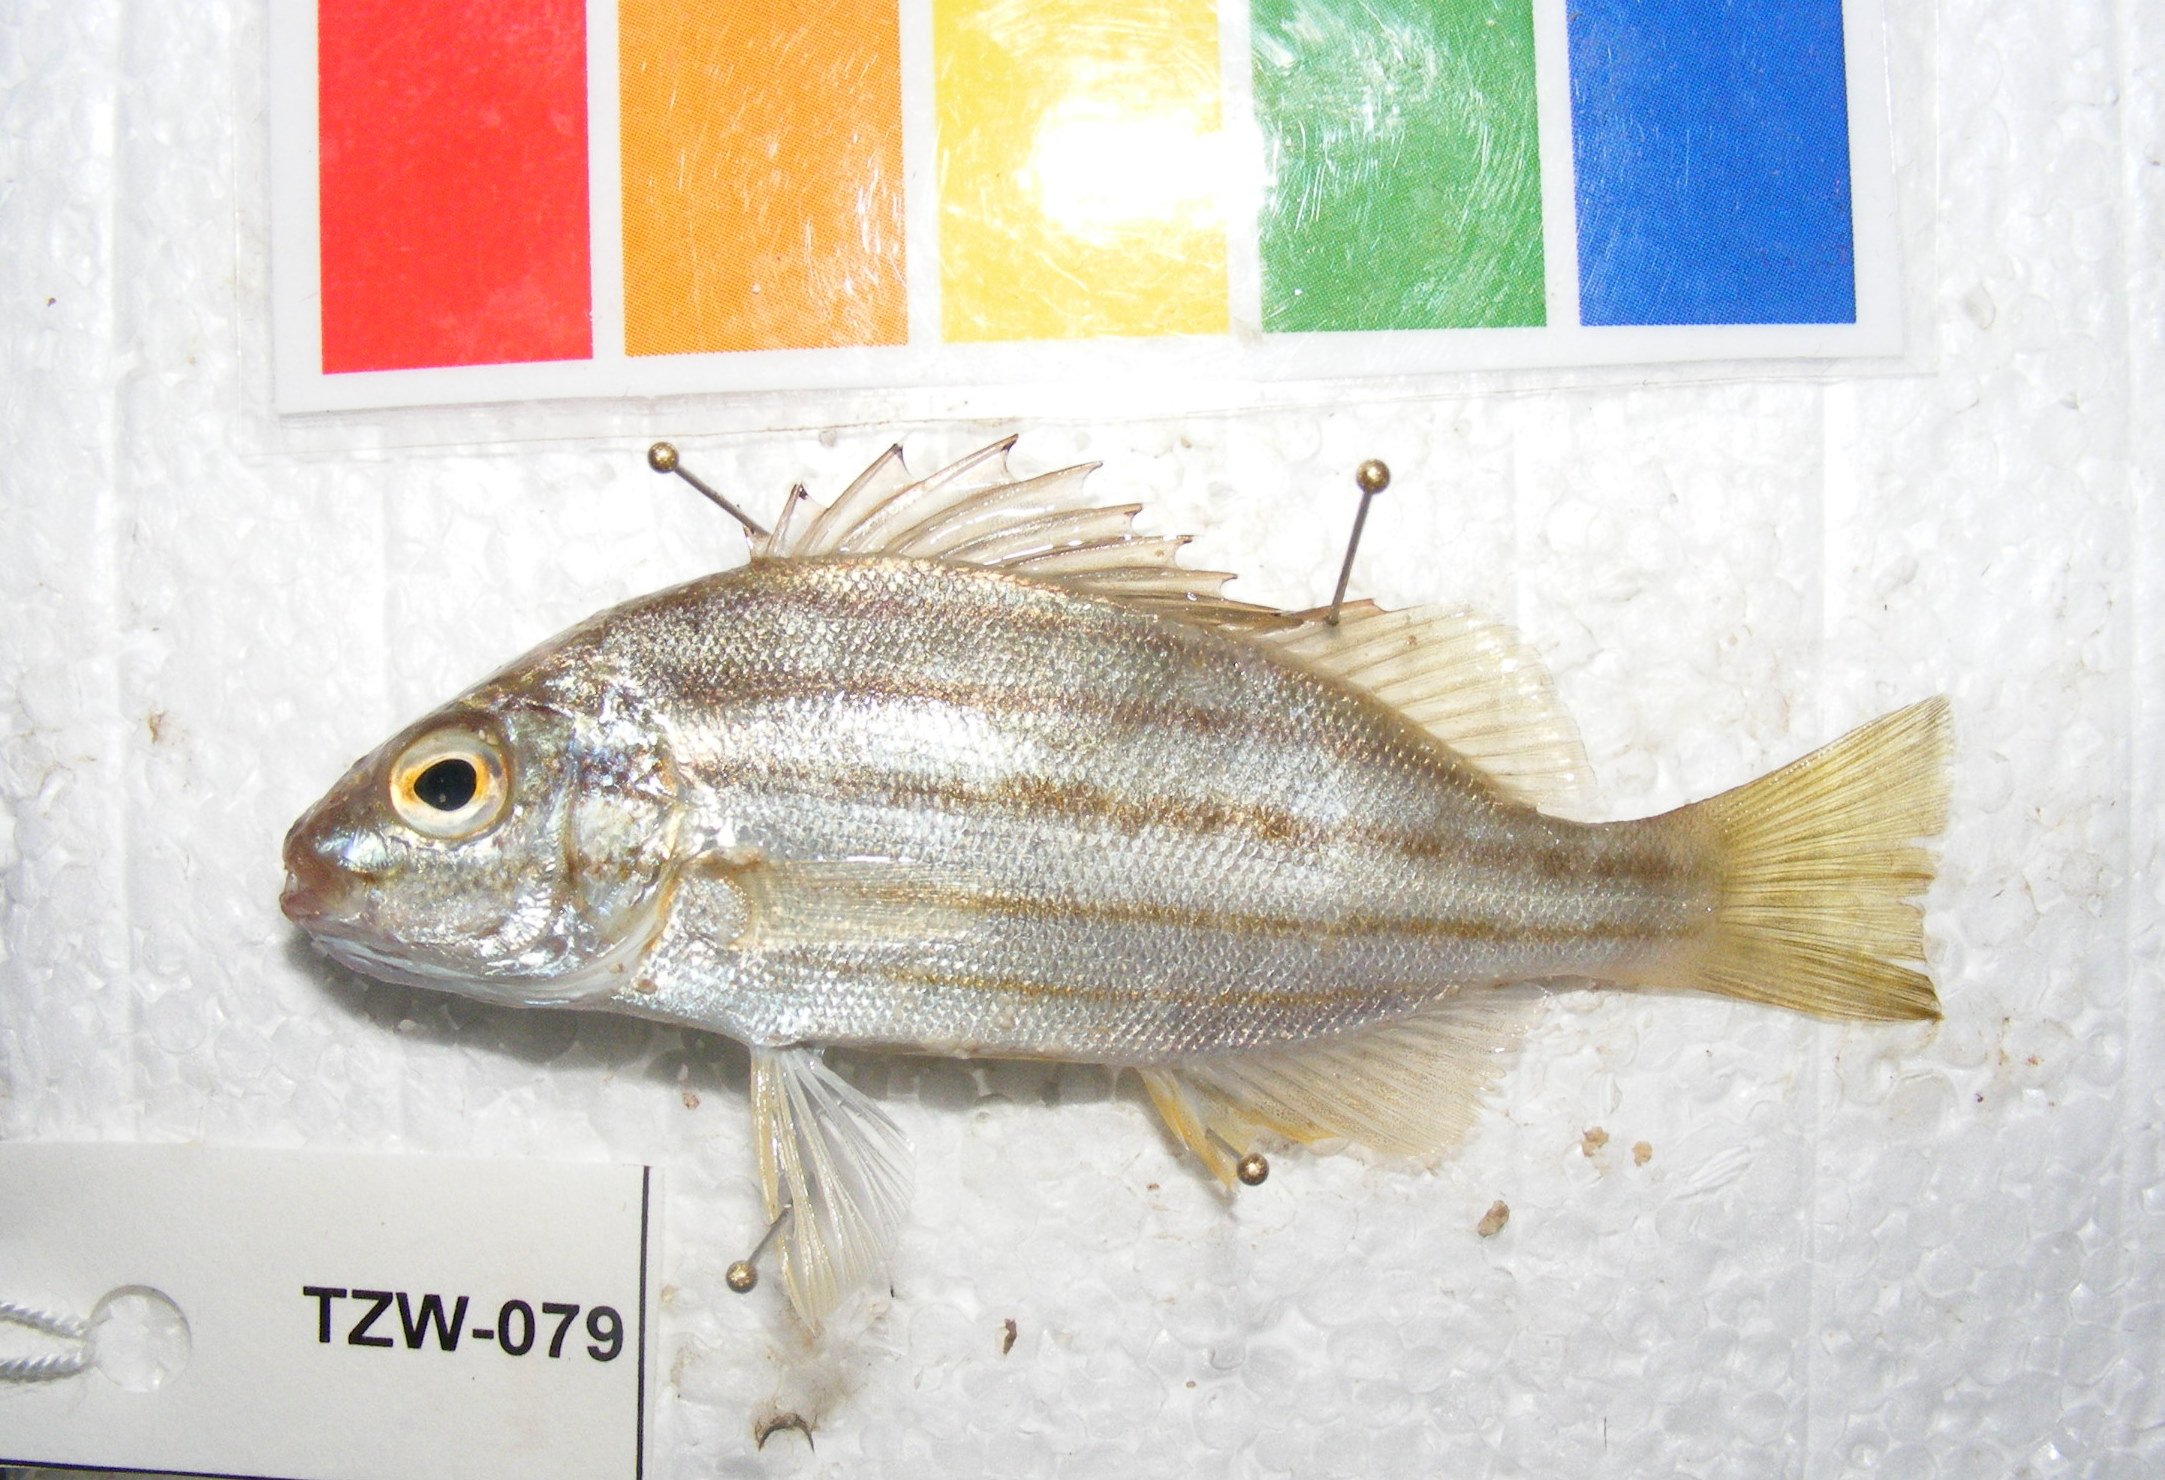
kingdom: Animalia
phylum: Chordata
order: Perciformes
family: Terapontidae
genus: Pelates
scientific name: Pelates quadrilineatus
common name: Fourlined terapon
